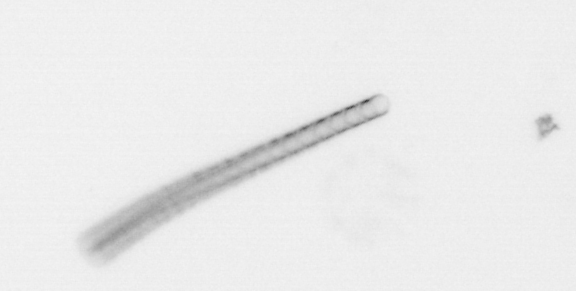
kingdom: Chromista
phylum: Ochrophyta
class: Bacillariophyceae
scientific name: Bacillariophyceae
